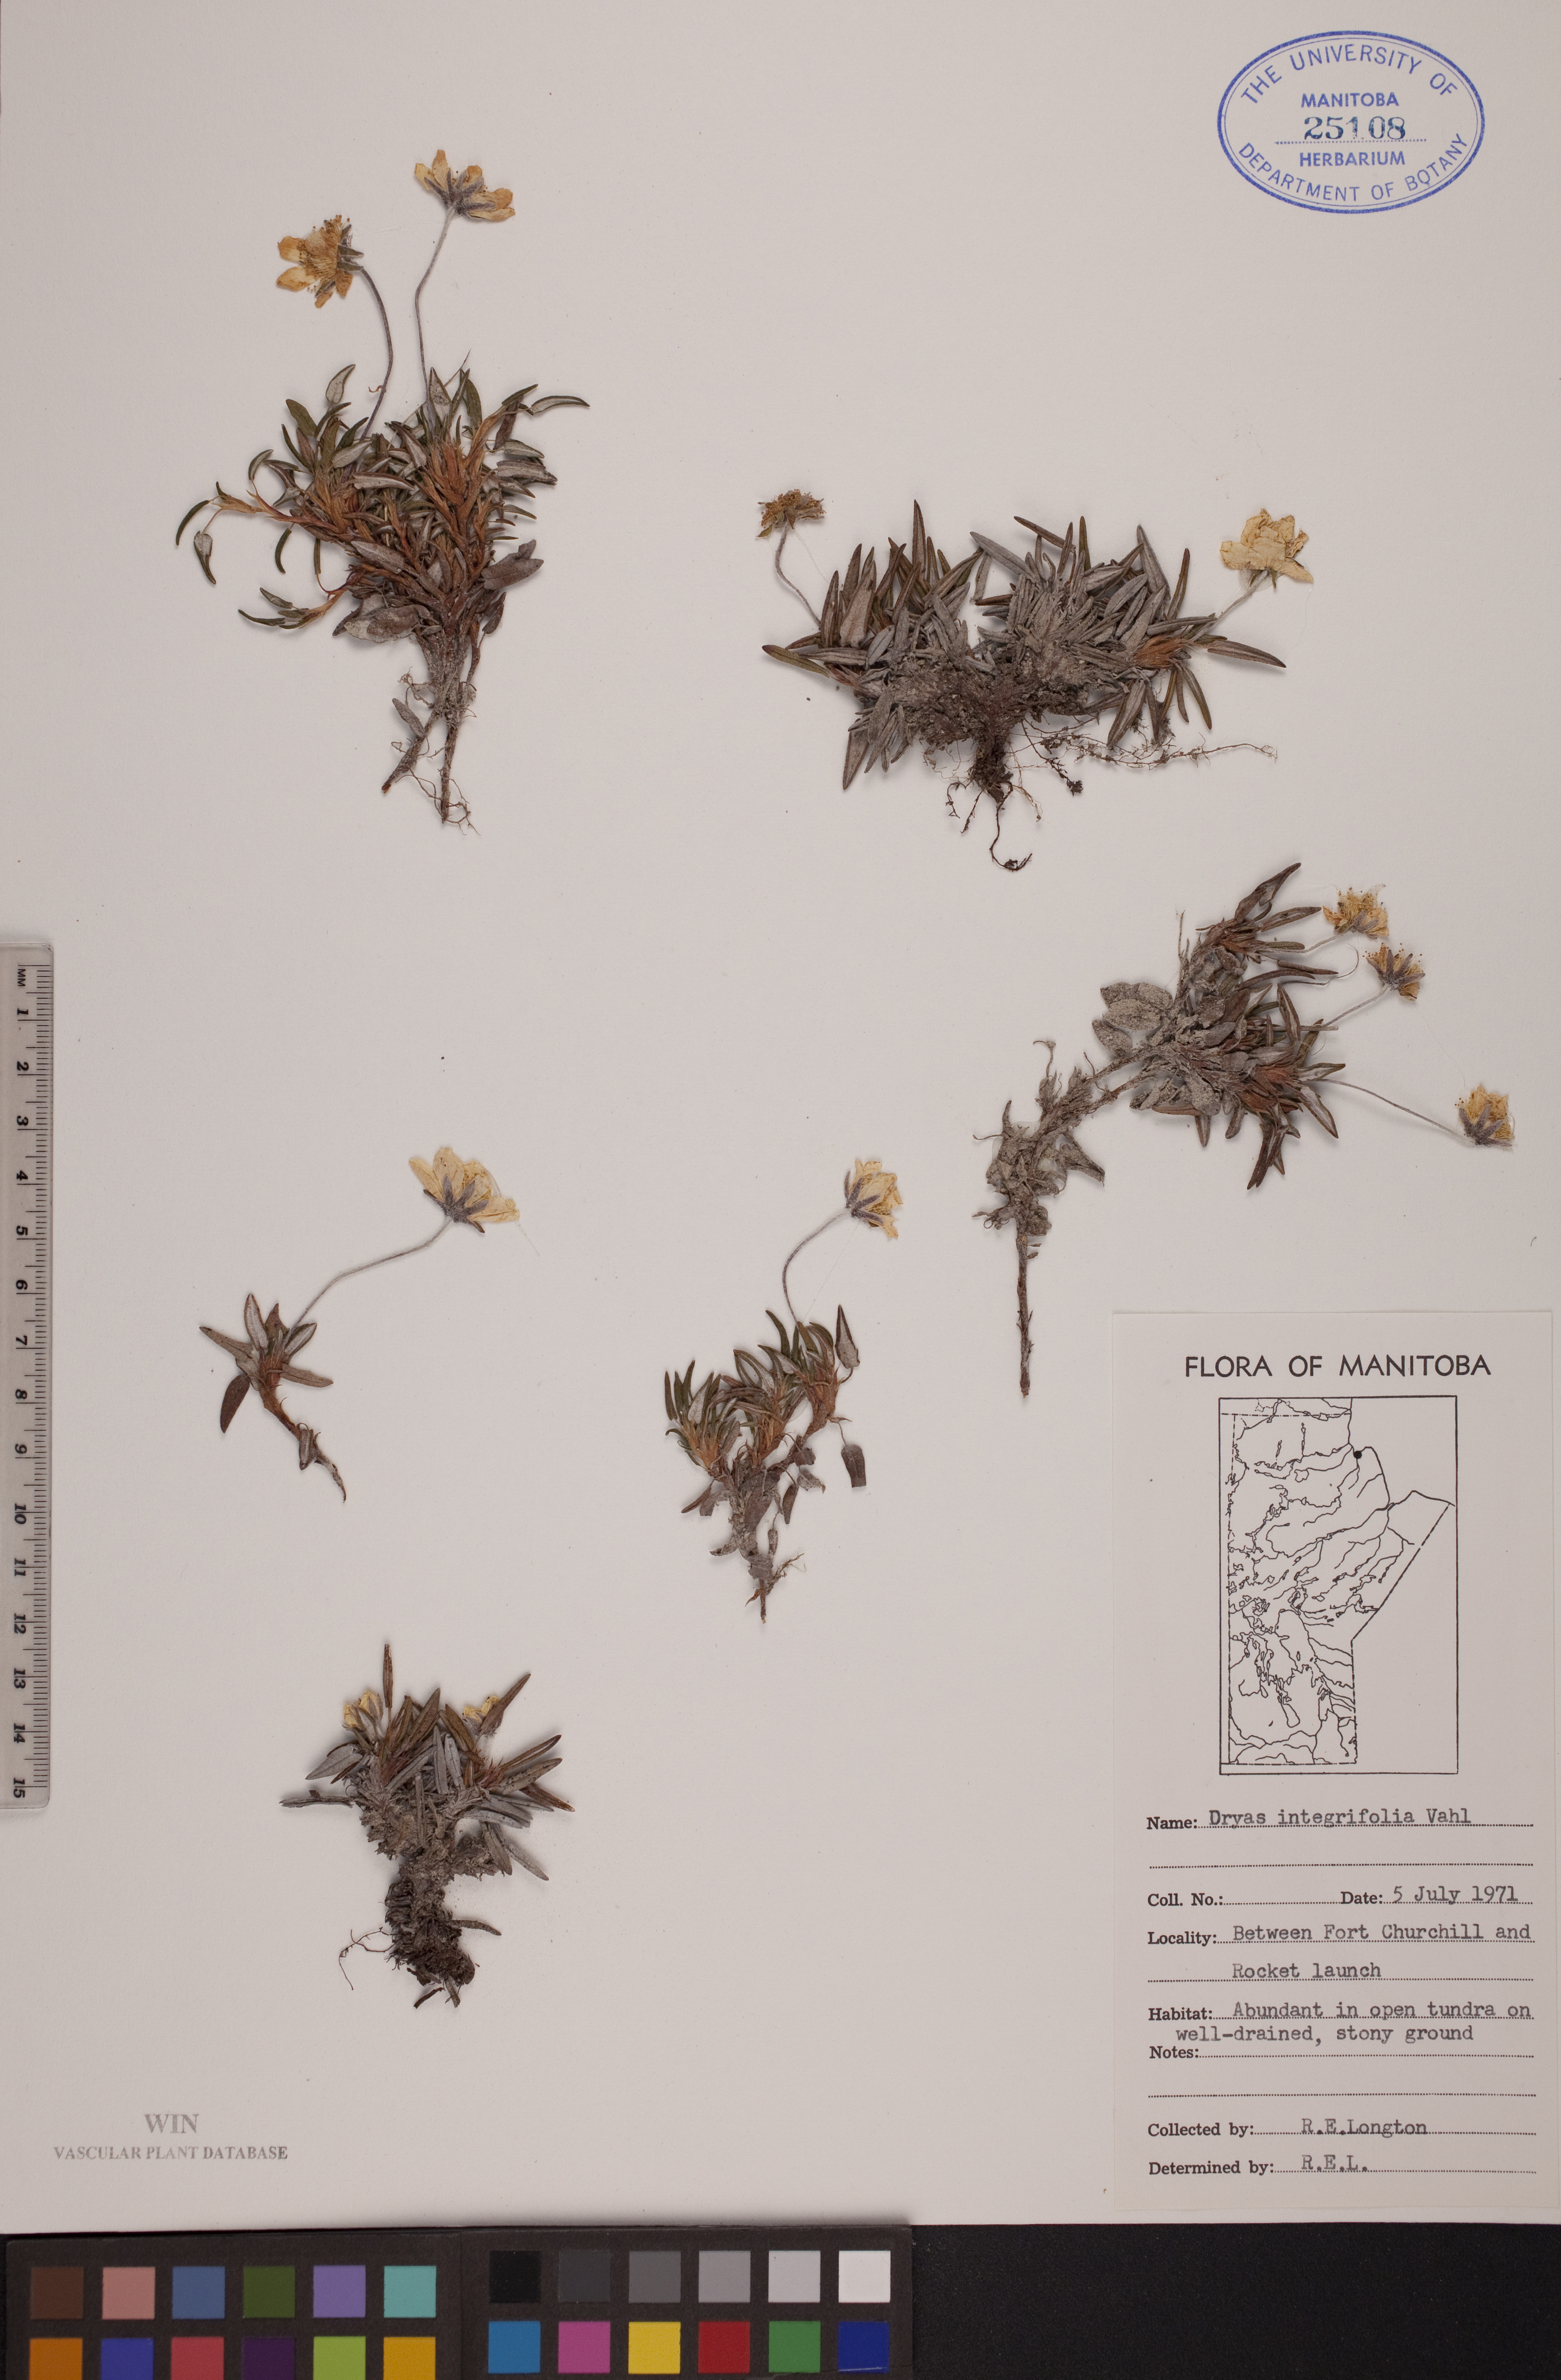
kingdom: Plantae
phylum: Tracheophyta
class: Magnoliopsida
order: Rosales
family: Rosaceae
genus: Dryas
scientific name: Dryas integrifolia
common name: Entire-leaved mountain avens
